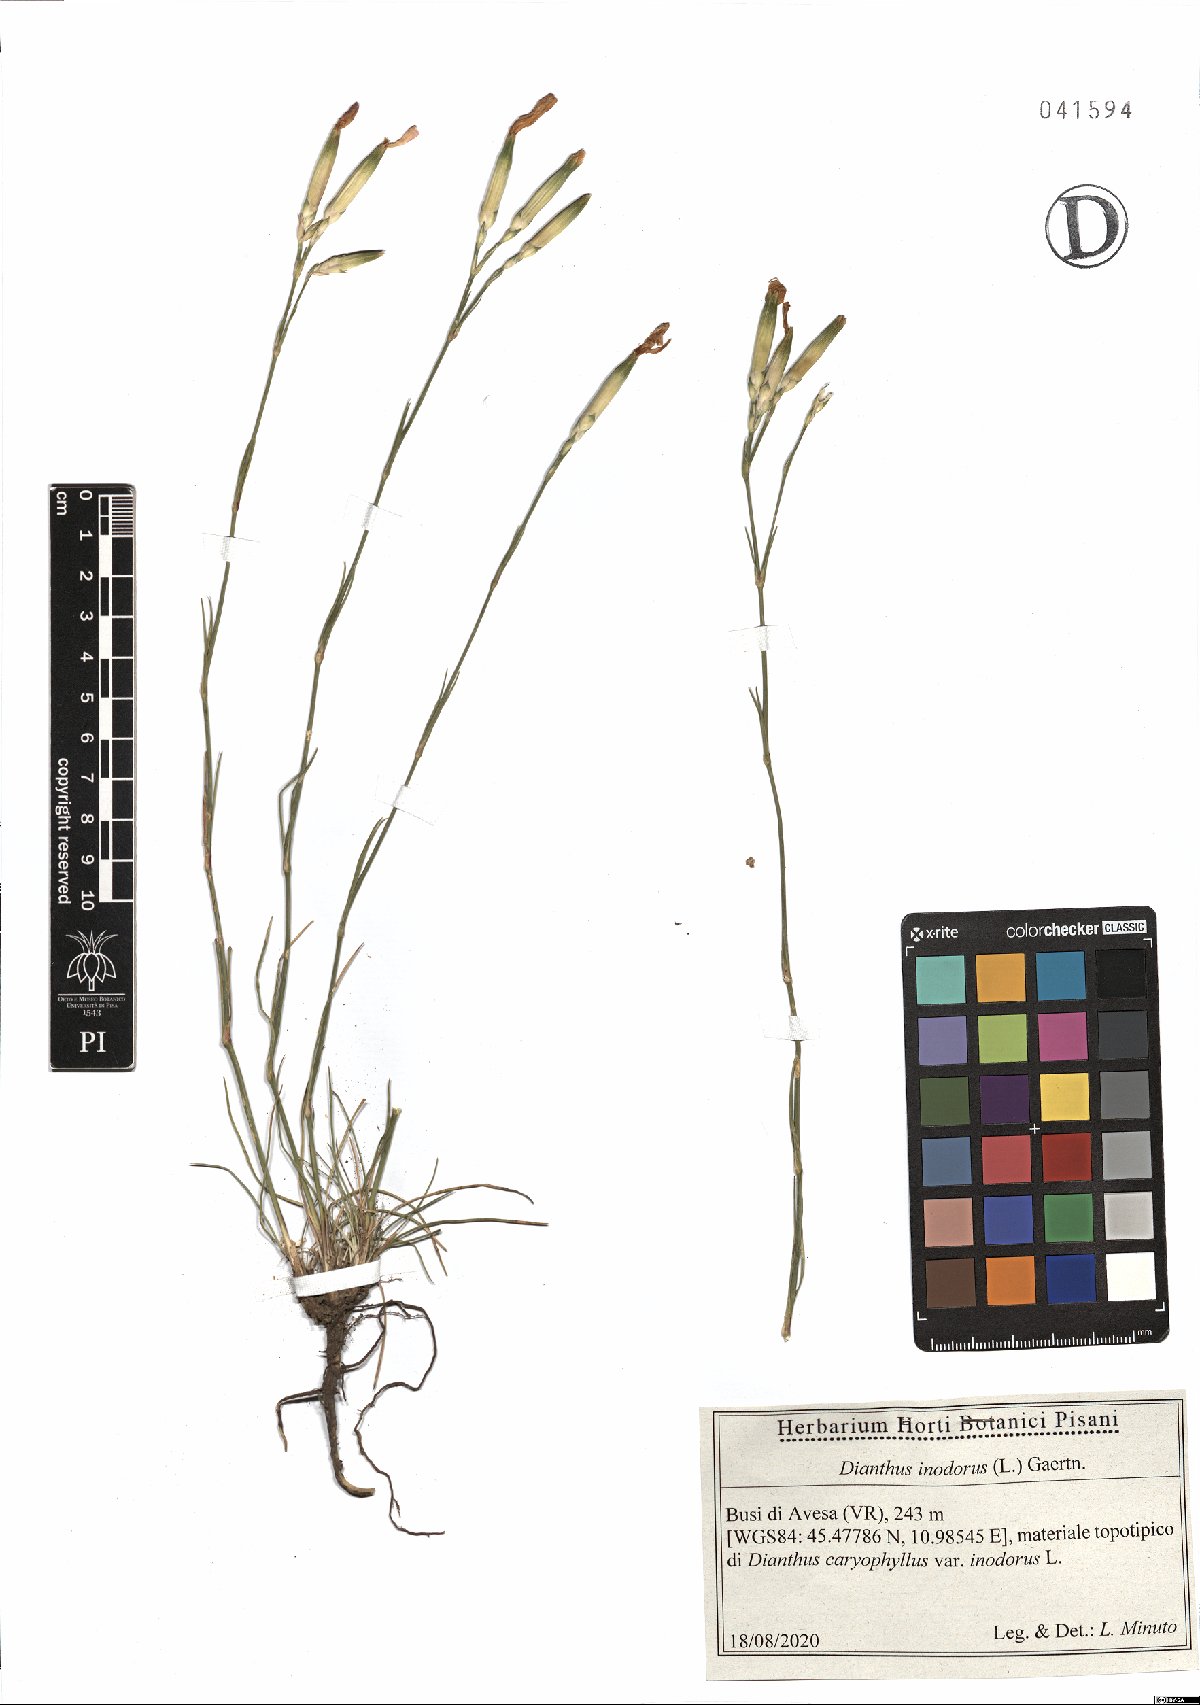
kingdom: Plantae
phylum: Tracheophyta
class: Magnoliopsida
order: Caryophyllales
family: Caryophyllaceae
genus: Dianthus
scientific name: Dianthus sylvestris
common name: Wood pink
